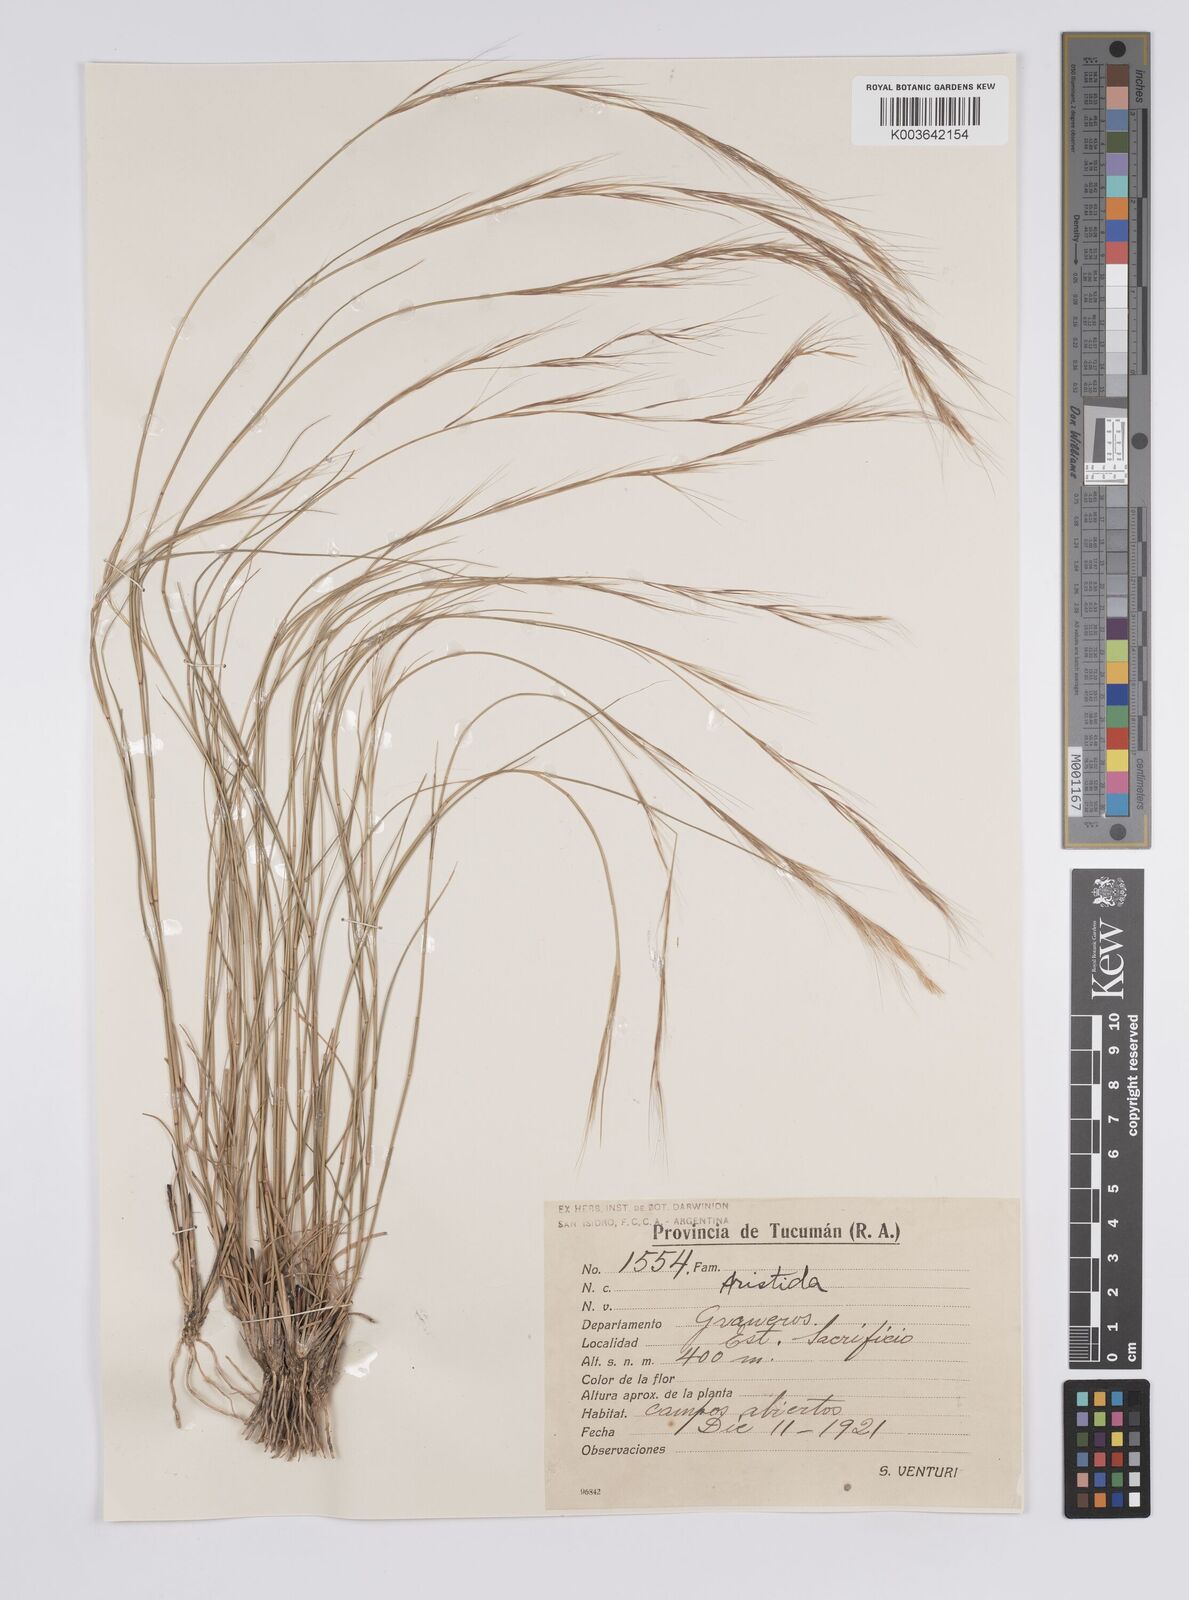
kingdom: Plantae
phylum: Tracheophyta
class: Liliopsida
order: Poales
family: Poaceae
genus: Aristida
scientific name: Aristida
